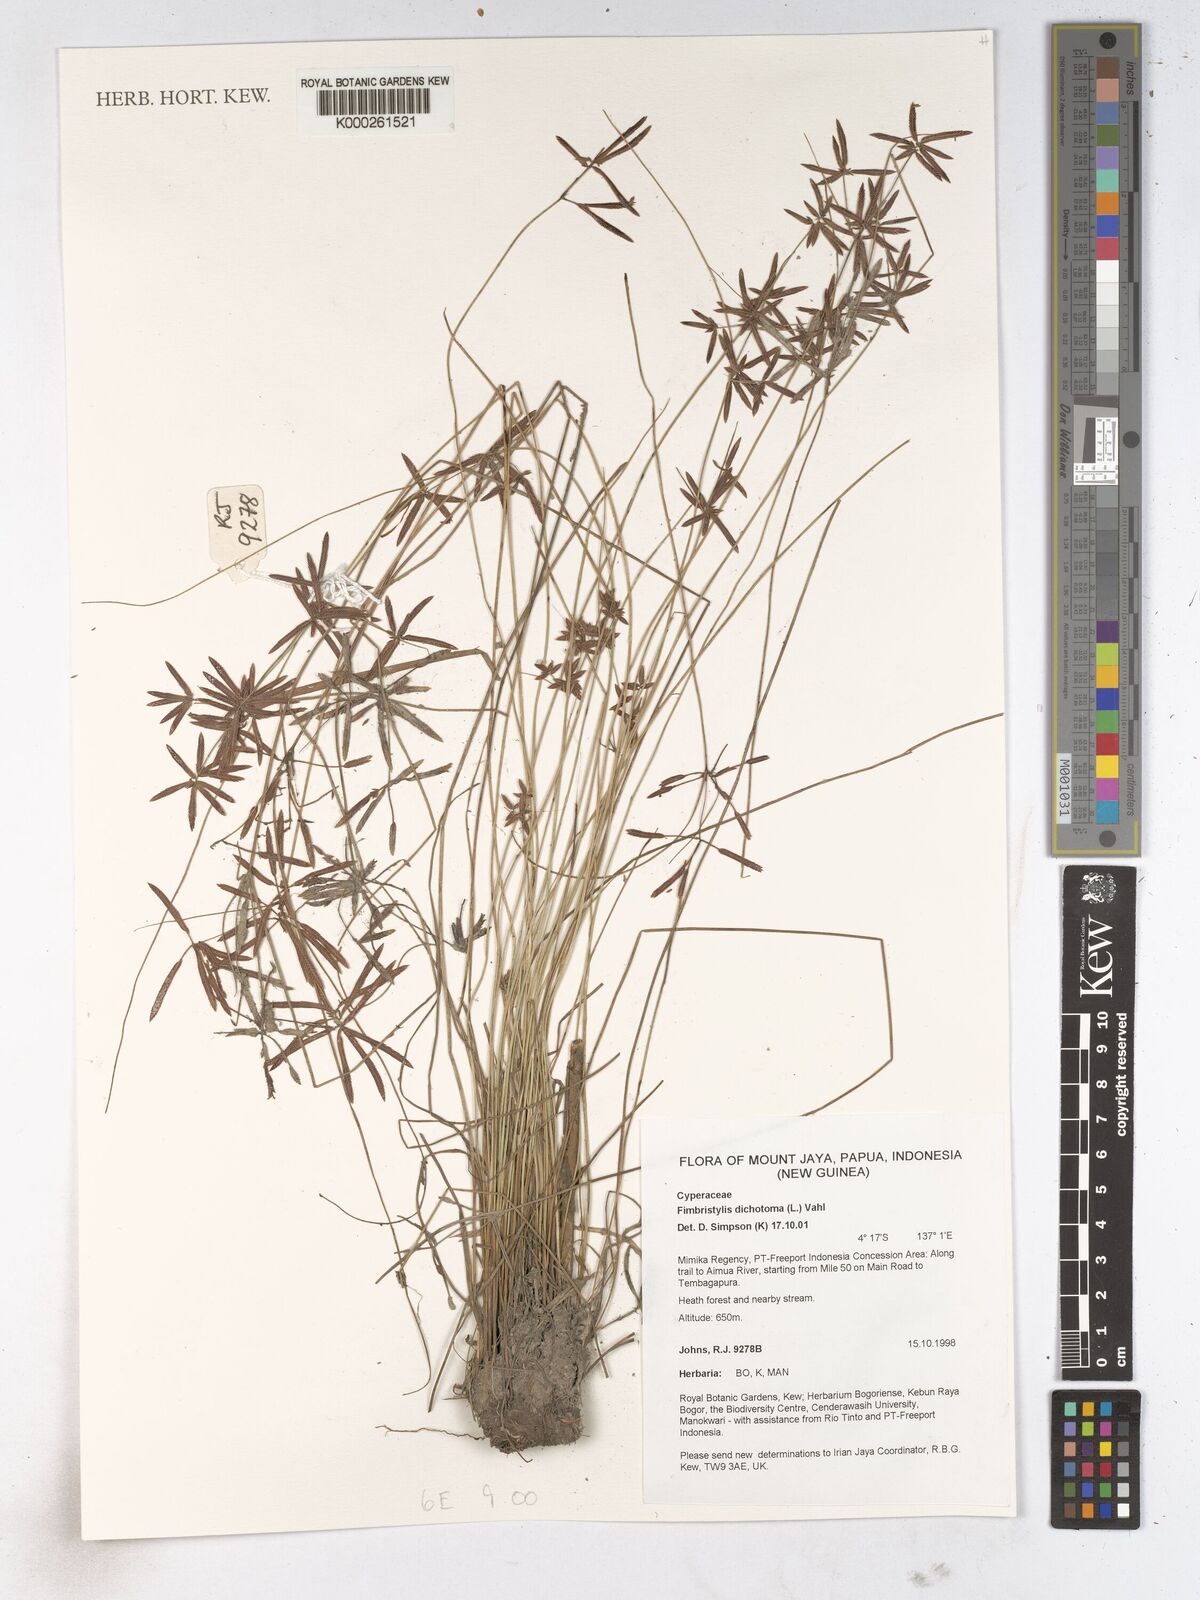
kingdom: Plantae
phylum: Tracheophyta
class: Liliopsida
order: Poales
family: Cyperaceae
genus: Fimbristylis
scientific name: Fimbristylis dichotoma
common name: Forked fimbry
